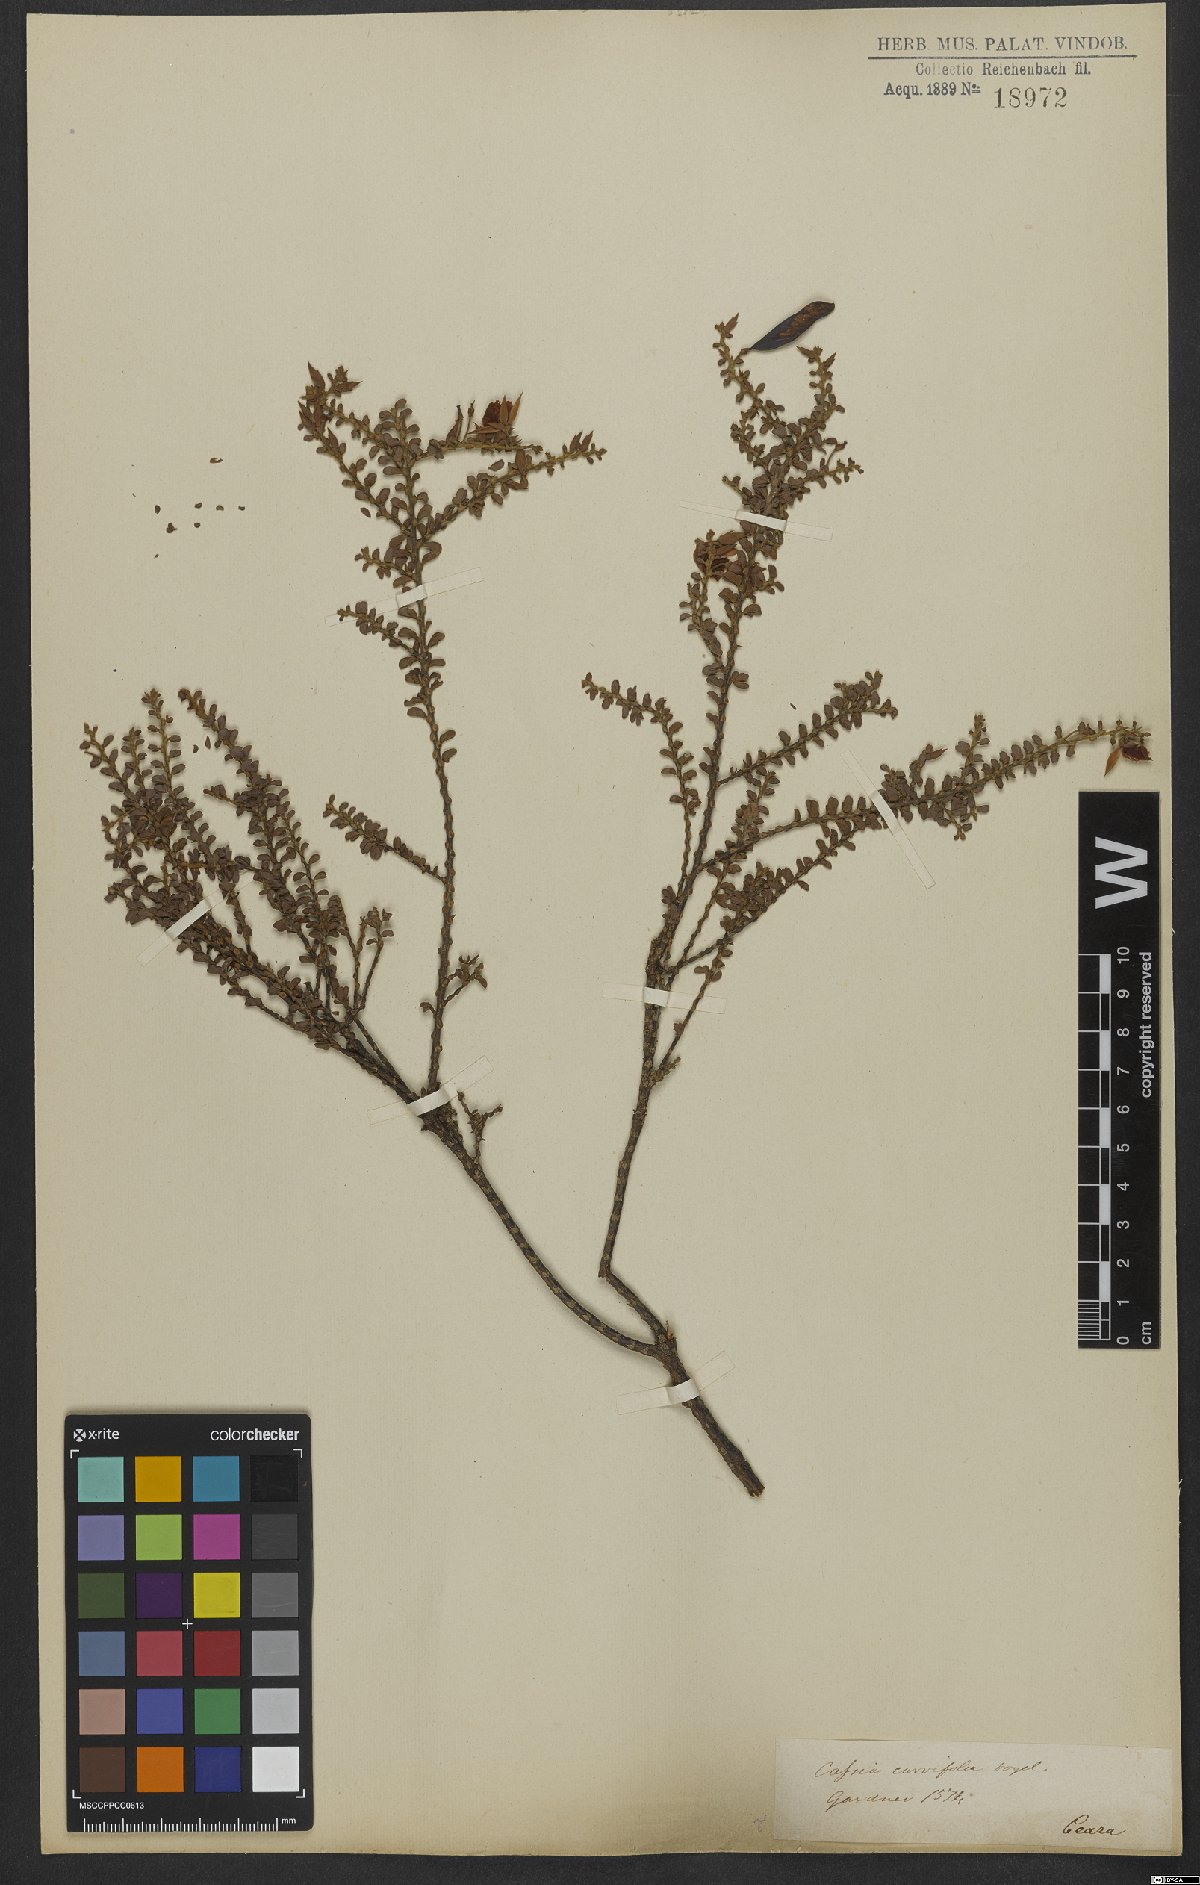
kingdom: Plantae
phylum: Tracheophyta
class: Magnoliopsida
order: Fabales
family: Fabaceae
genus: Chamaecrista
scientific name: Chamaecrista ramosa
